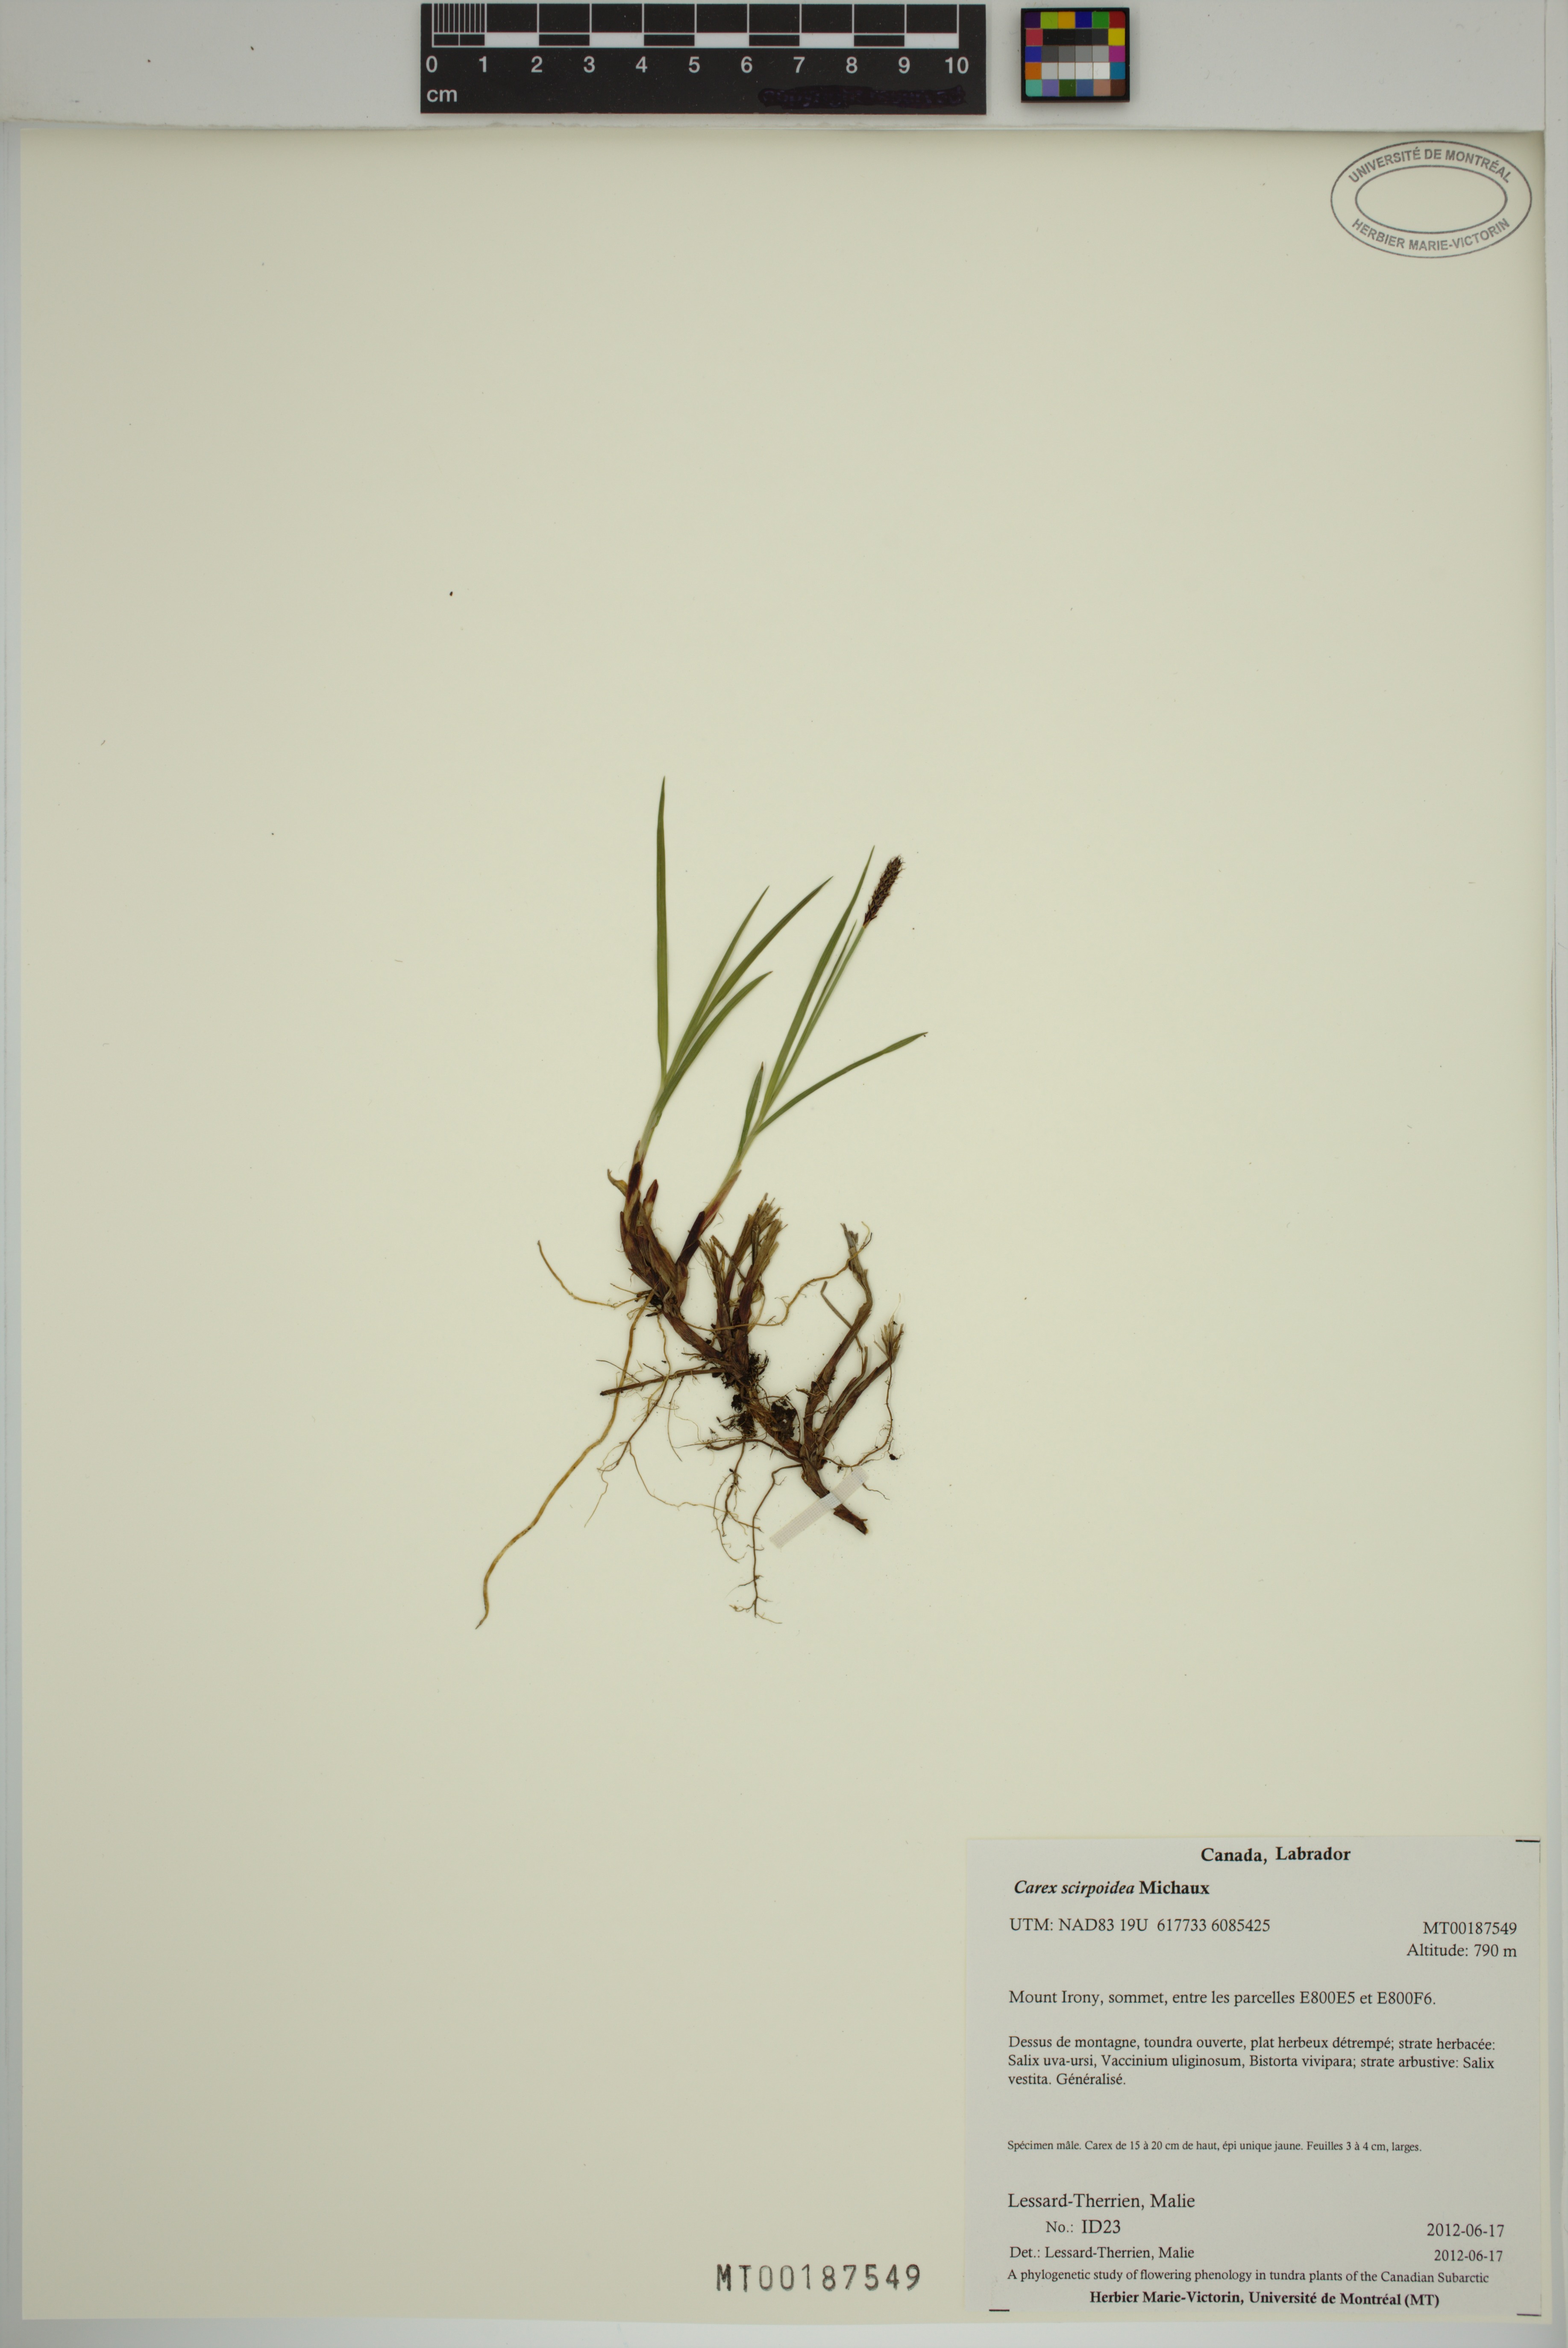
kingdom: Plantae
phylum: Tracheophyta
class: Liliopsida
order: Poales
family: Cyperaceae
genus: Carex
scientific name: Carex scirpoidea
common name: Canada single-spike sedge
